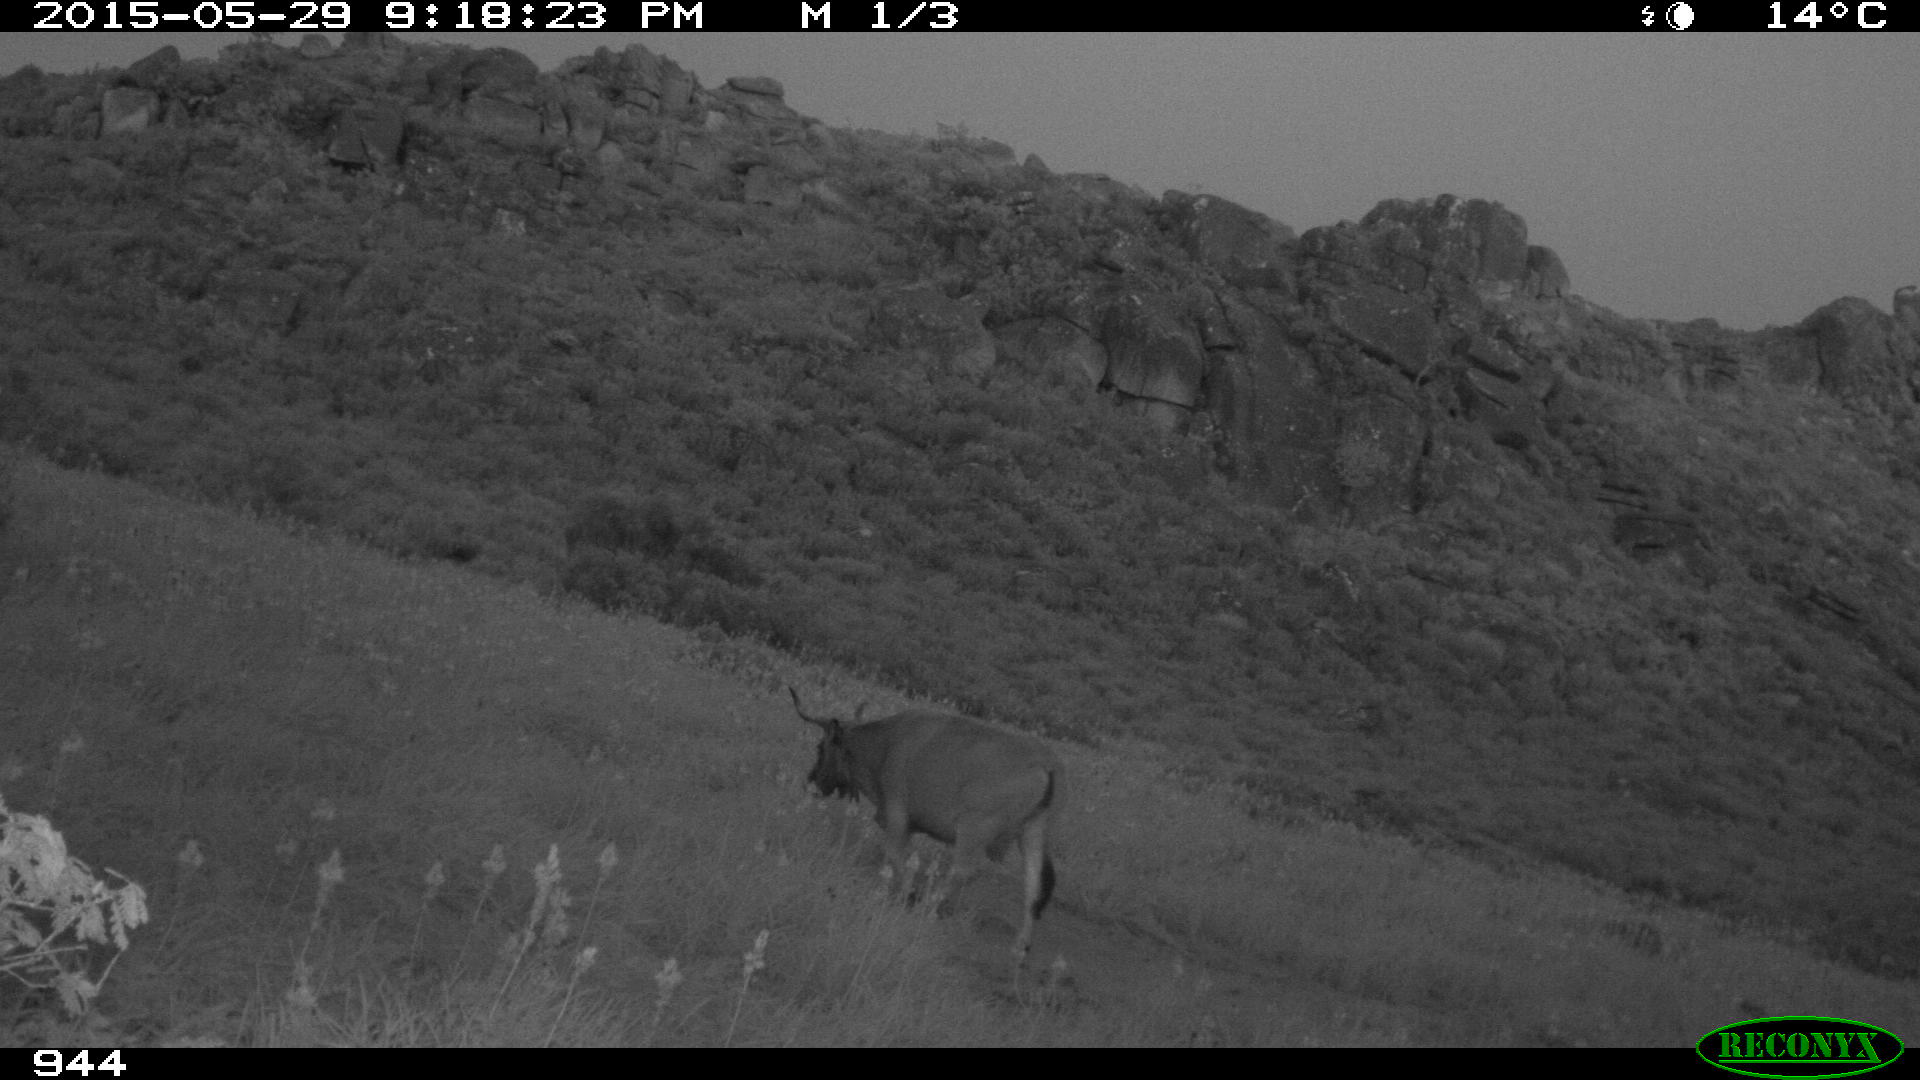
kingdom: Animalia
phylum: Chordata
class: Mammalia
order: Artiodactyla
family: Bovidae
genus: Bos
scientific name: Bos taurus
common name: Domesticated cattle
